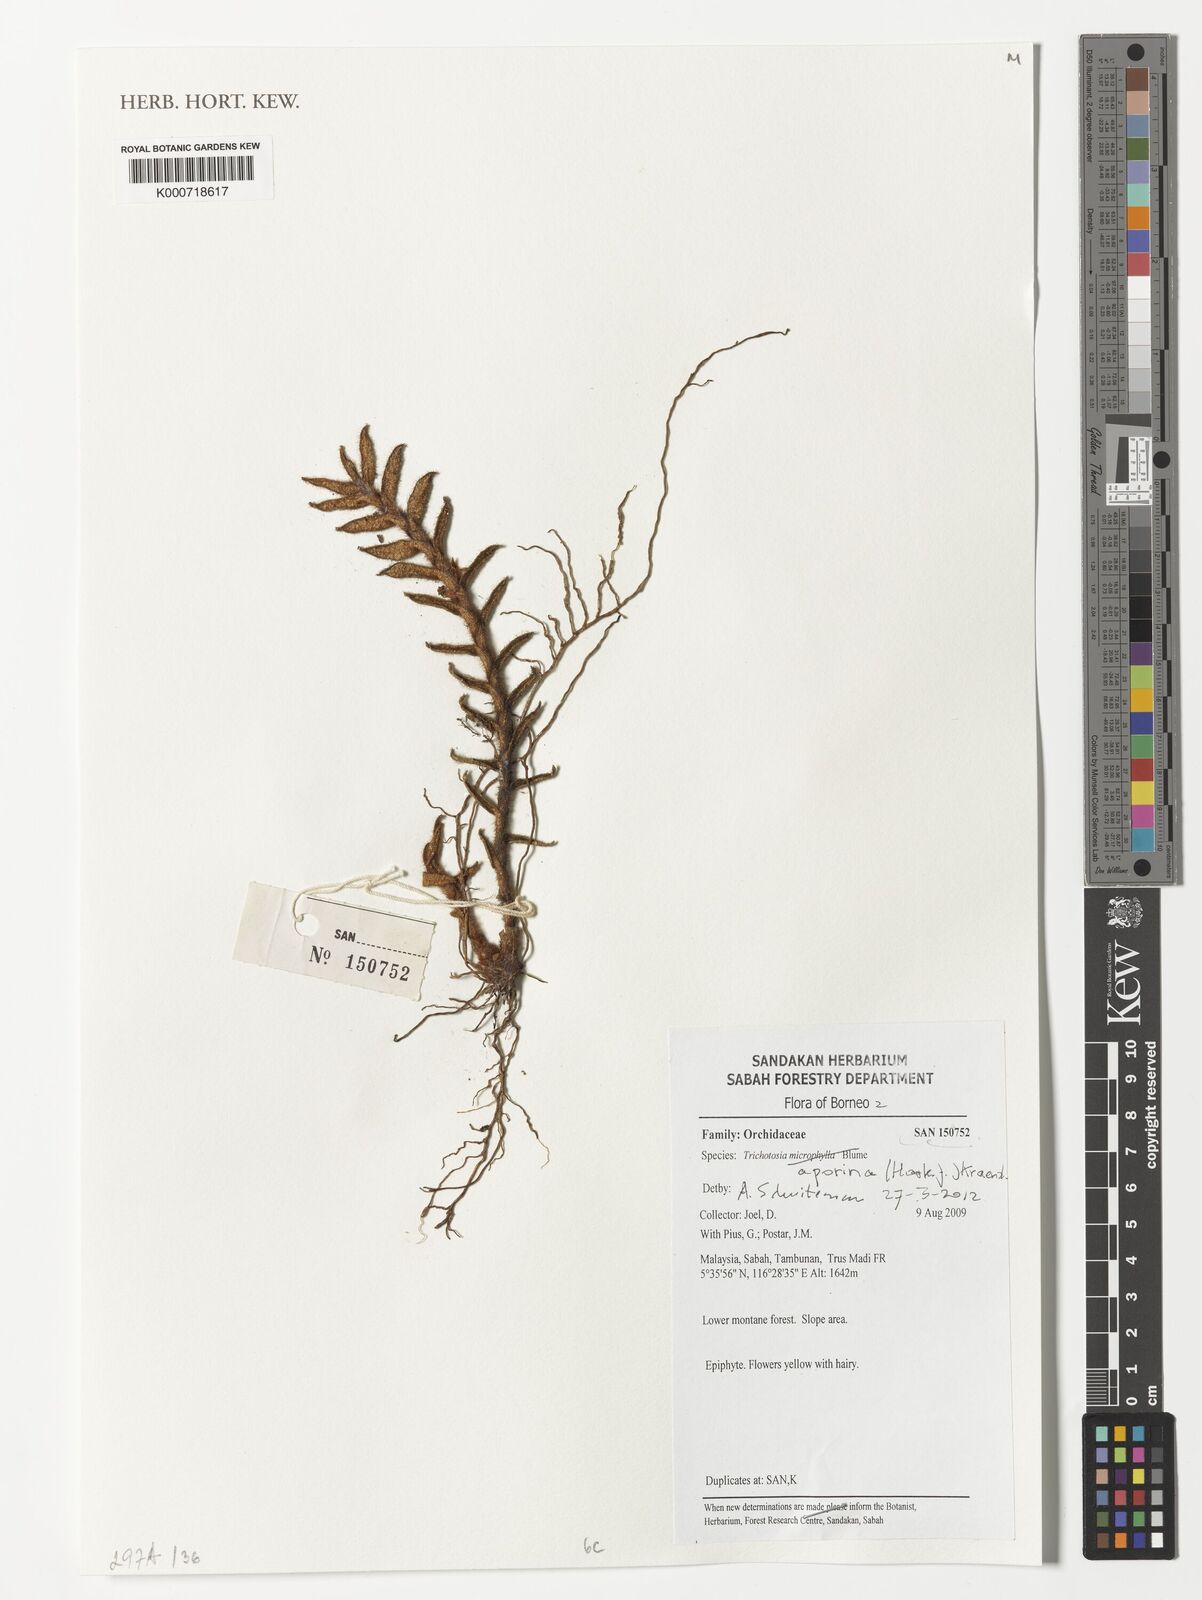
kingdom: Plantae
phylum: Tracheophyta
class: Liliopsida
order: Asparagales
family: Orchidaceae
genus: Trichotosia
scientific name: Trichotosia aporina
